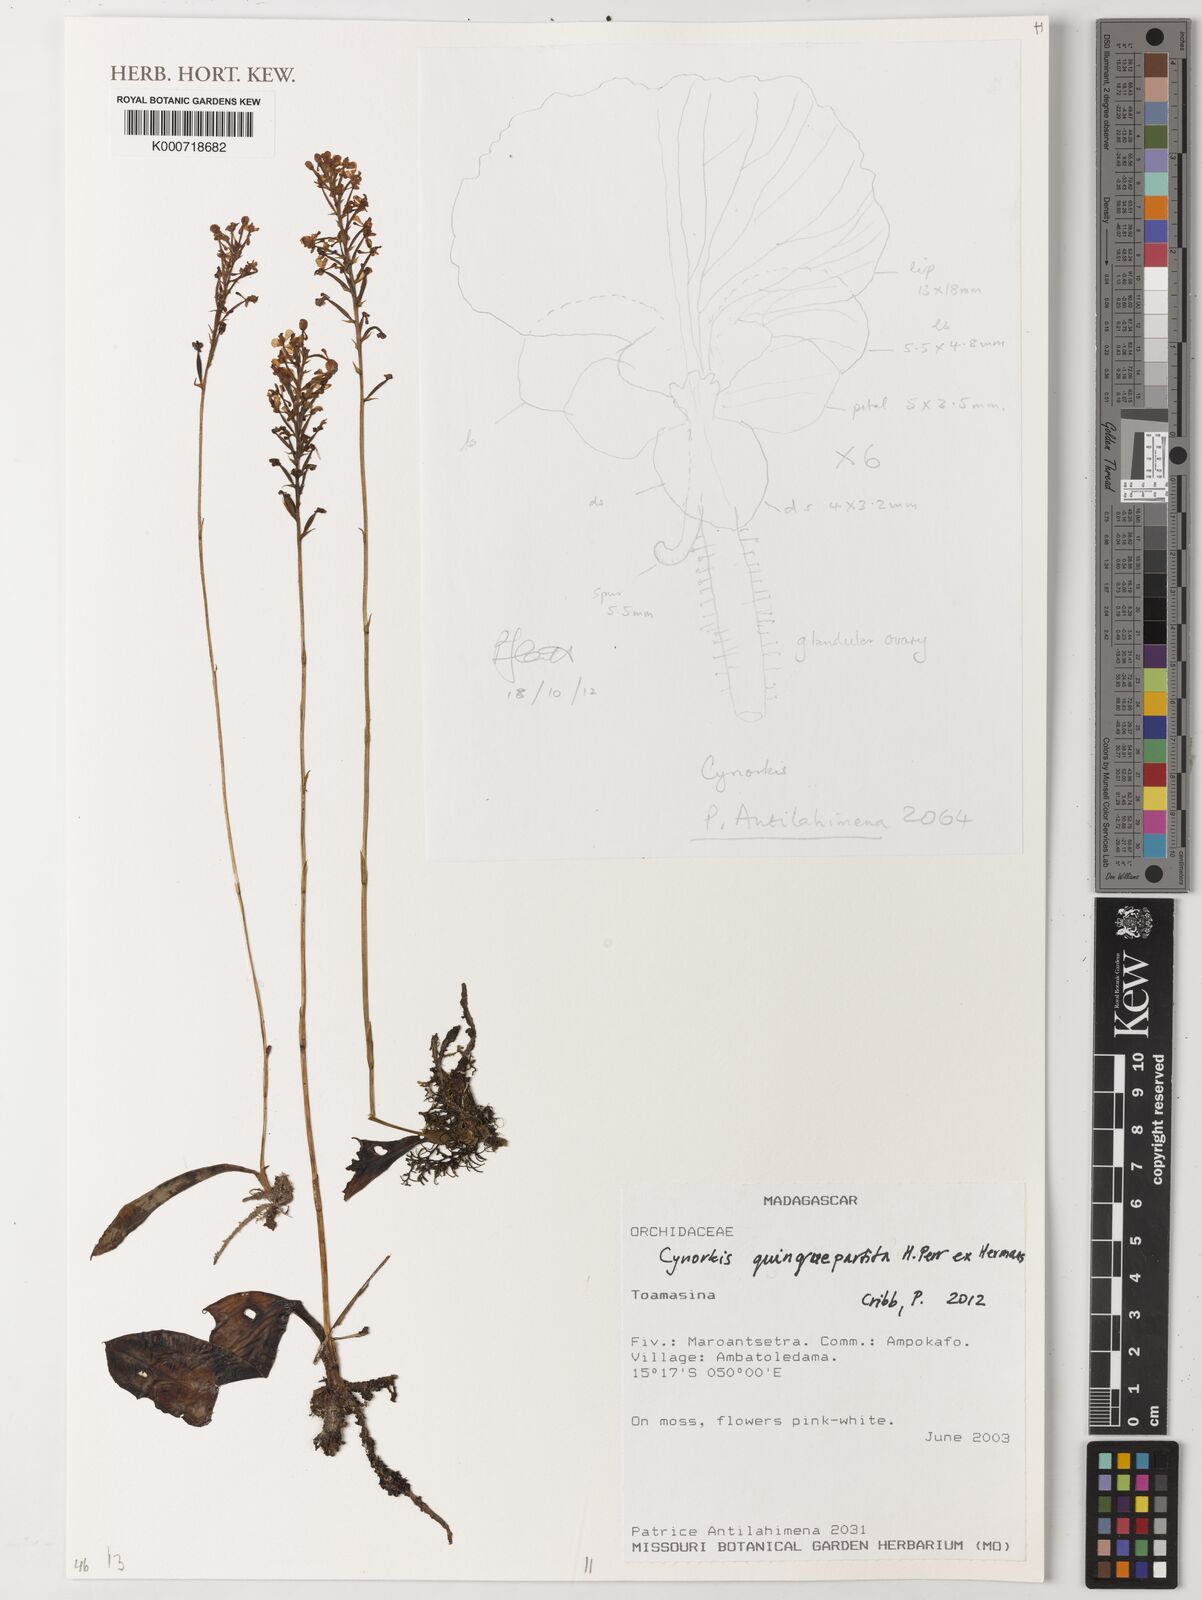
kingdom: Plantae
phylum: Tracheophyta
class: Liliopsida
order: Asparagales
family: Orchidaceae
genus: Cynorkis
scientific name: Cynorkis quinquepartita
